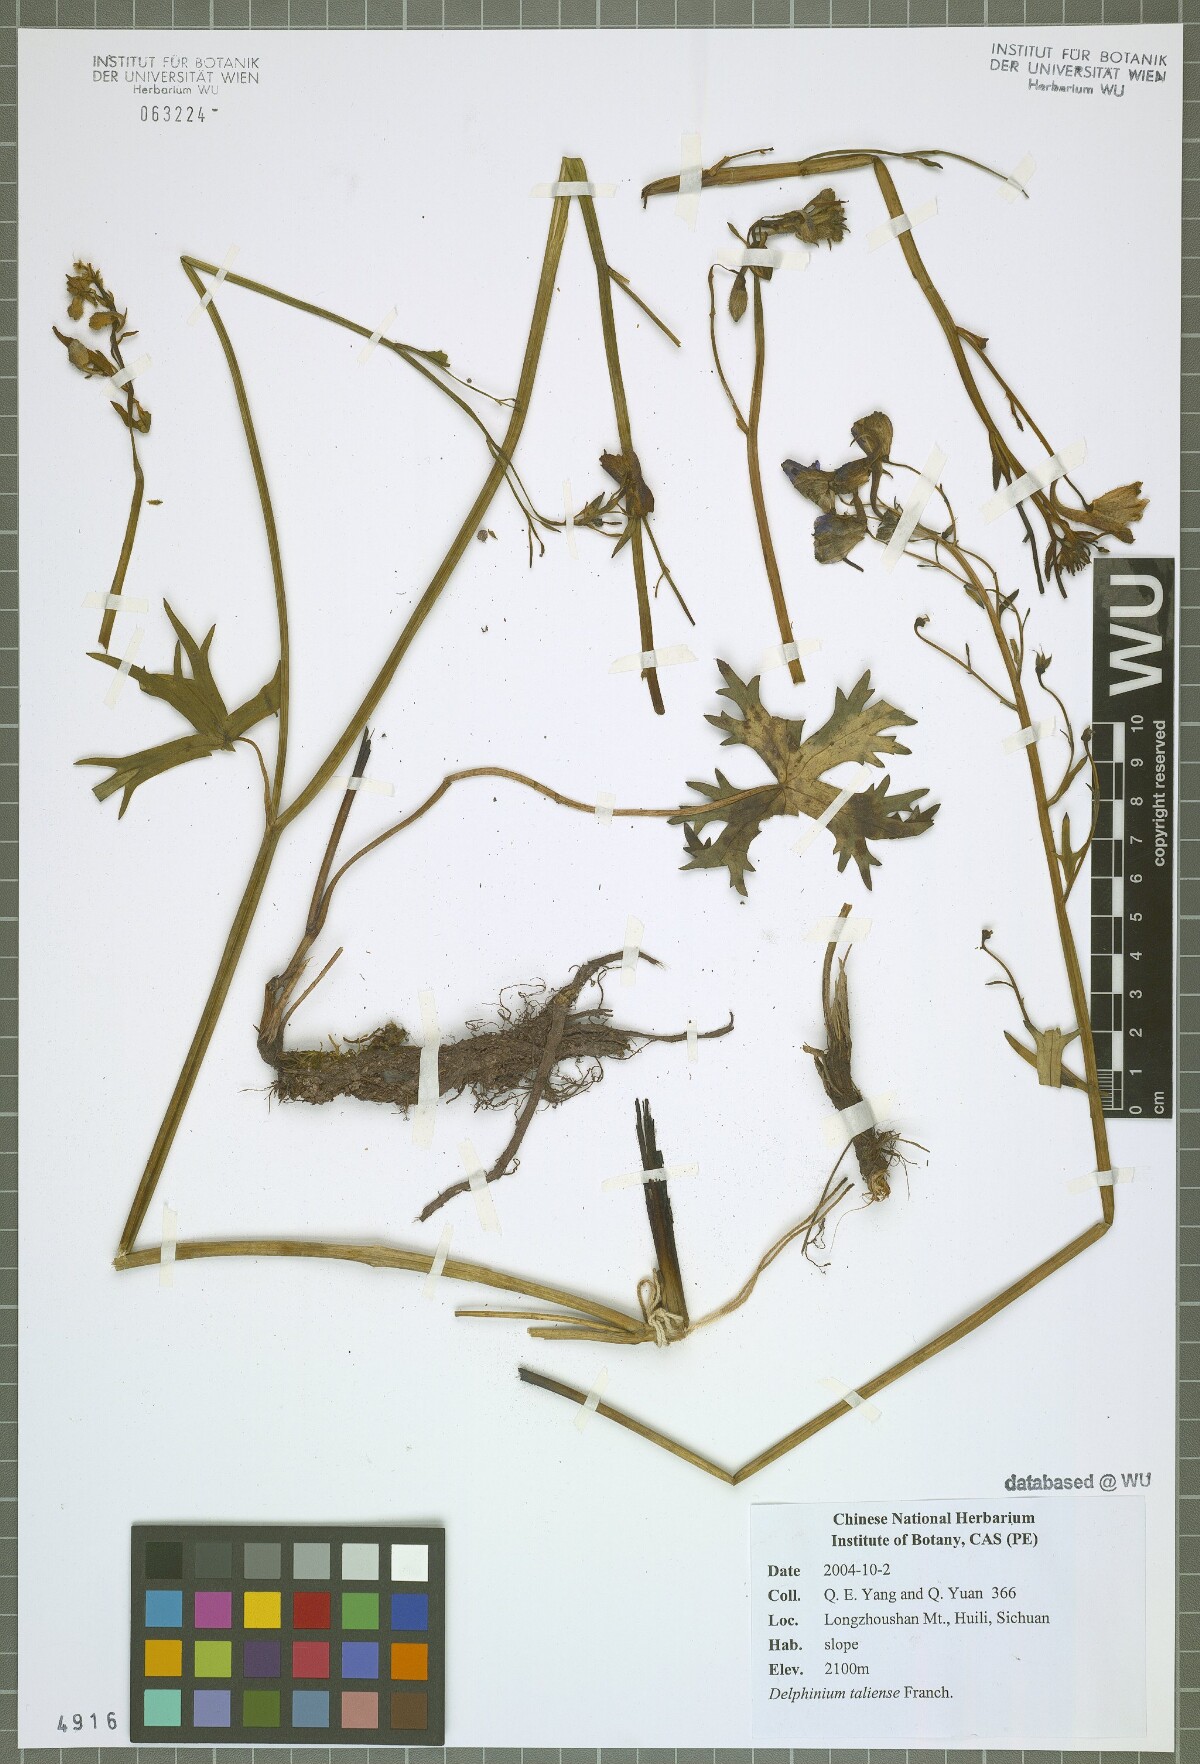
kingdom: Plantae
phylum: Tracheophyta
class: Magnoliopsida
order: Ranunculales
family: Ranunculaceae
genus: Delphinium
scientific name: Delphinium taliense
